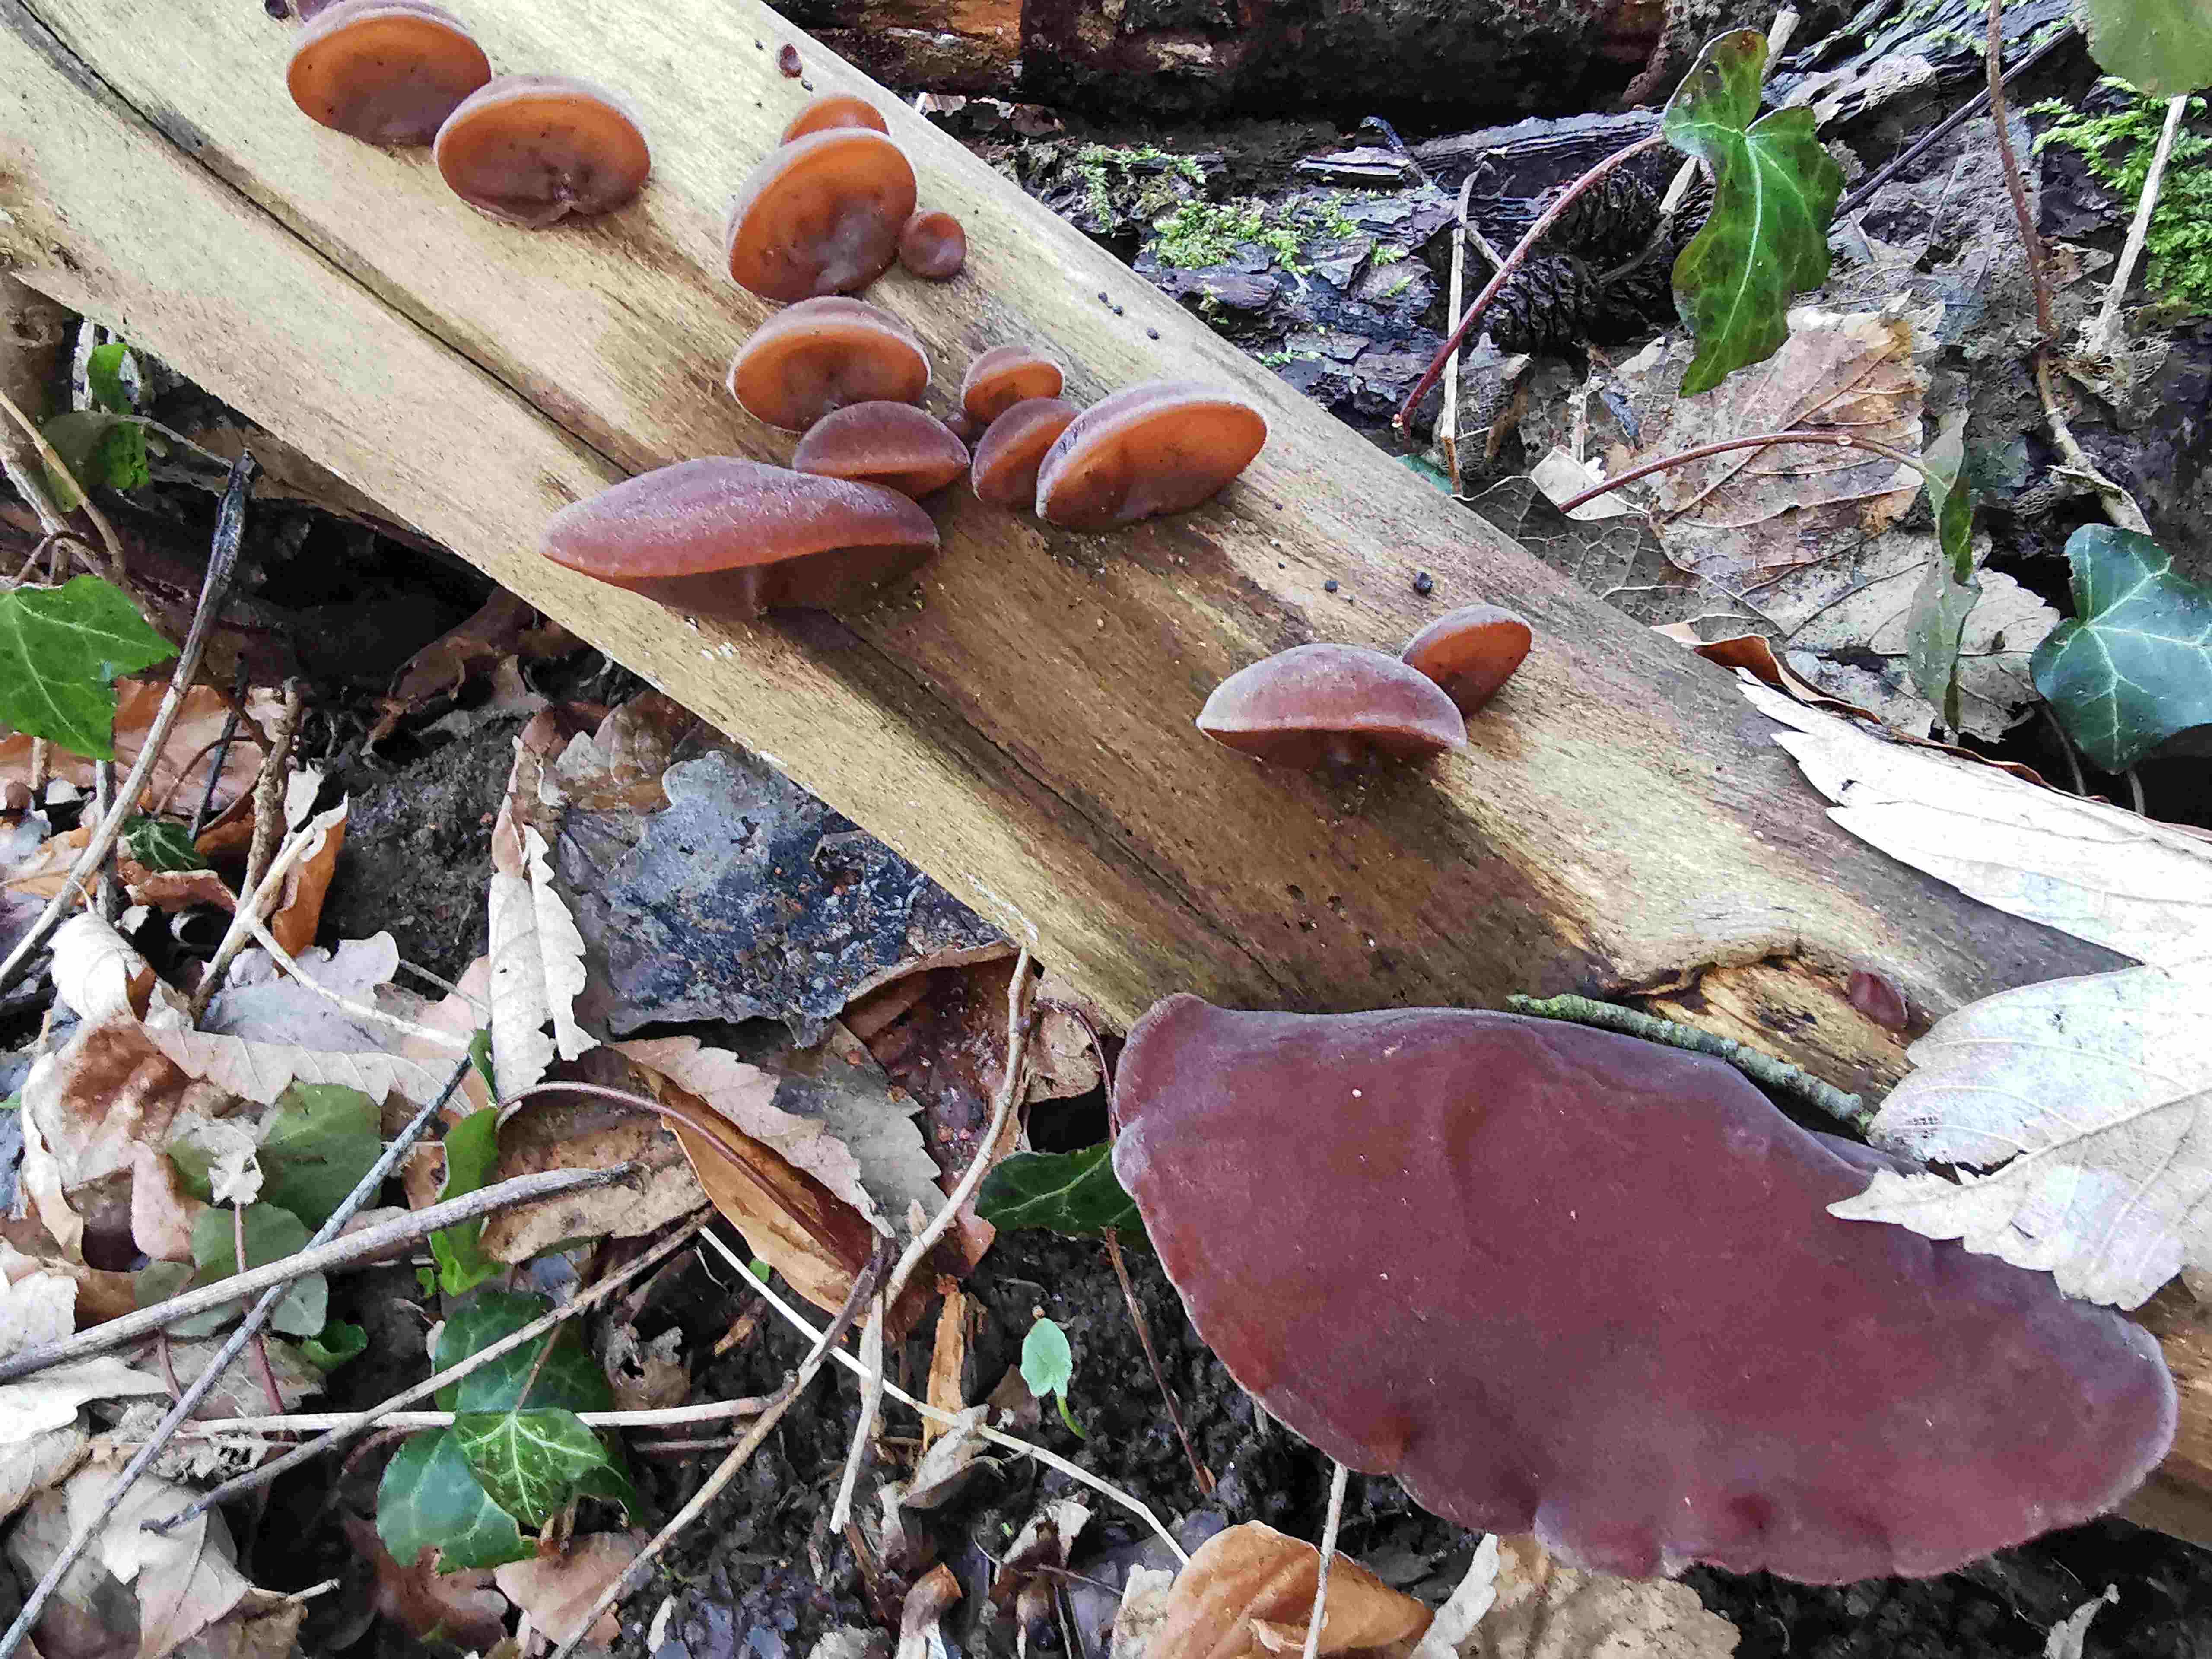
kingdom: Fungi
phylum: Basidiomycota
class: Agaricomycetes
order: Auriculariales
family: Auriculariaceae
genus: Auricularia
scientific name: Auricularia auricula-judae
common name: almindelig judasøre
